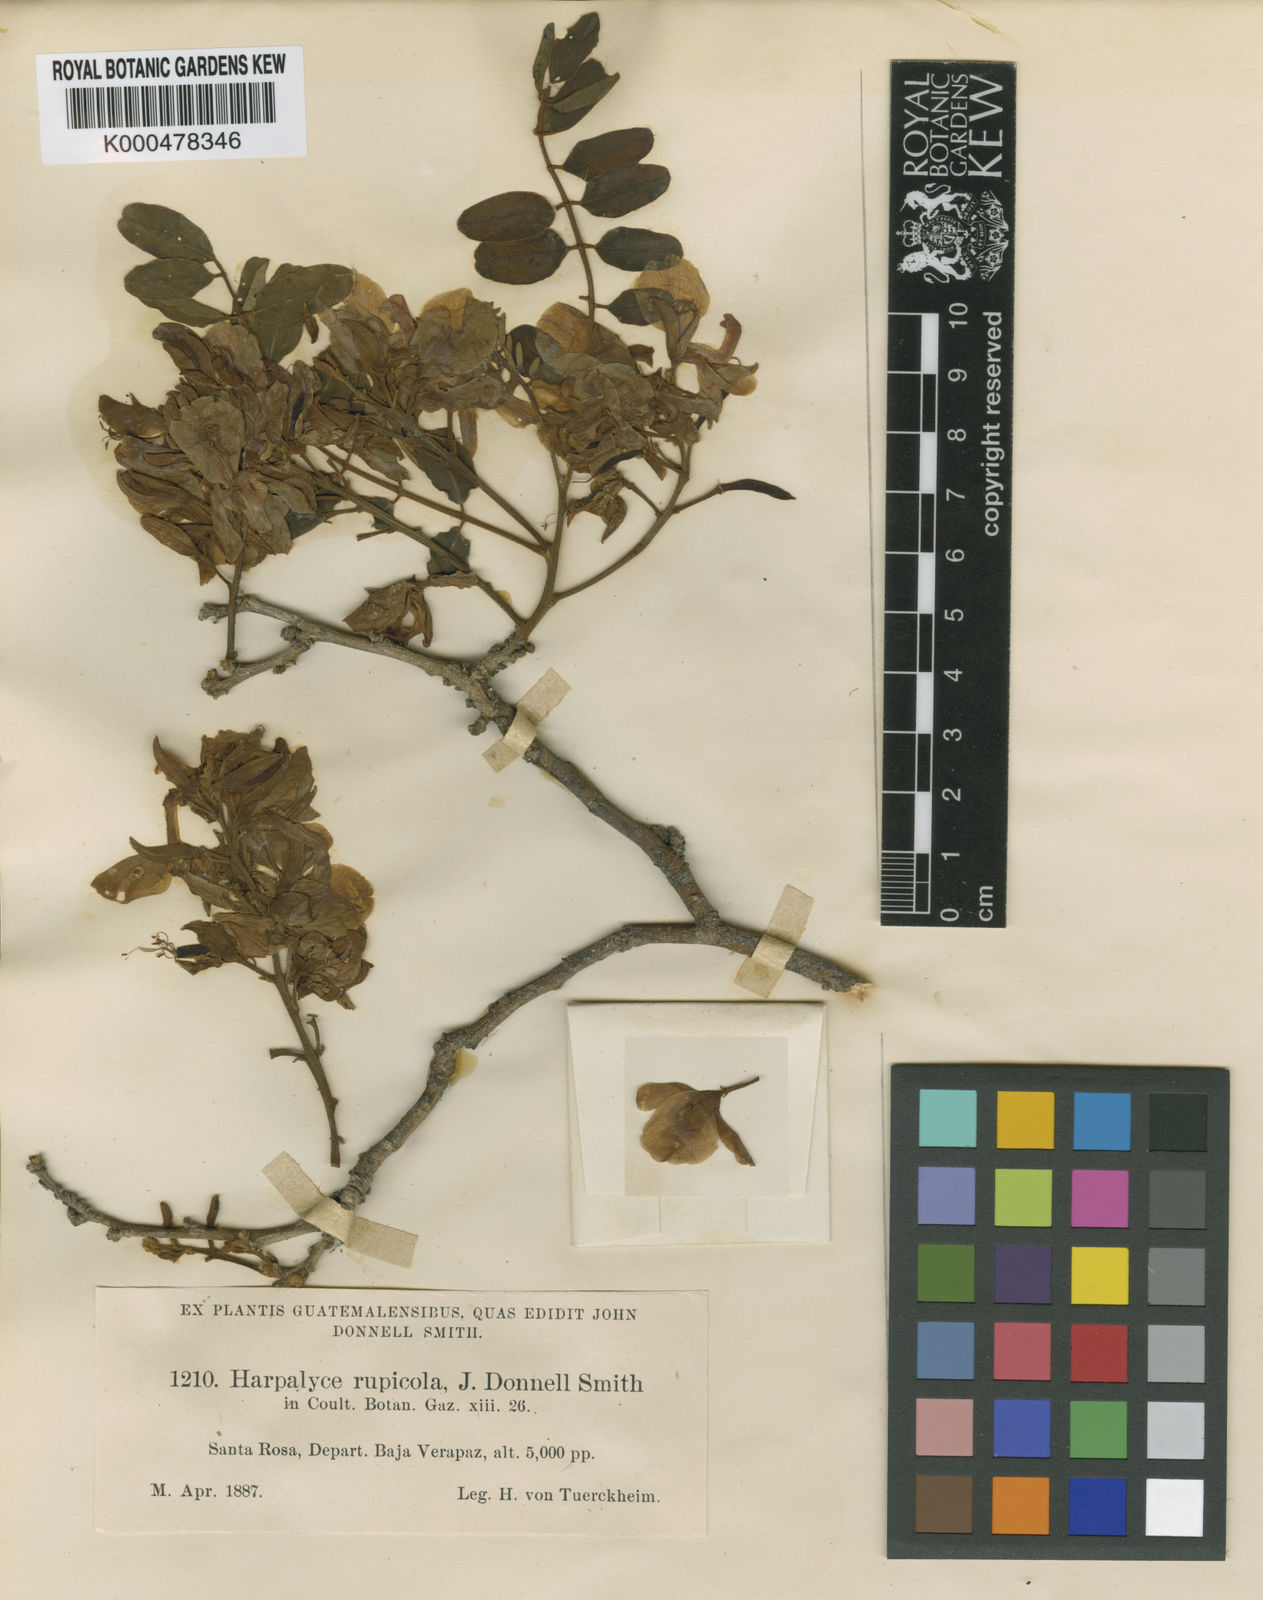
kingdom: Plantae
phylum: Tracheophyta
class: Magnoliopsida
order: Fabales
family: Fabaceae
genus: Harpalyce
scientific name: Harpalyce rupicola
